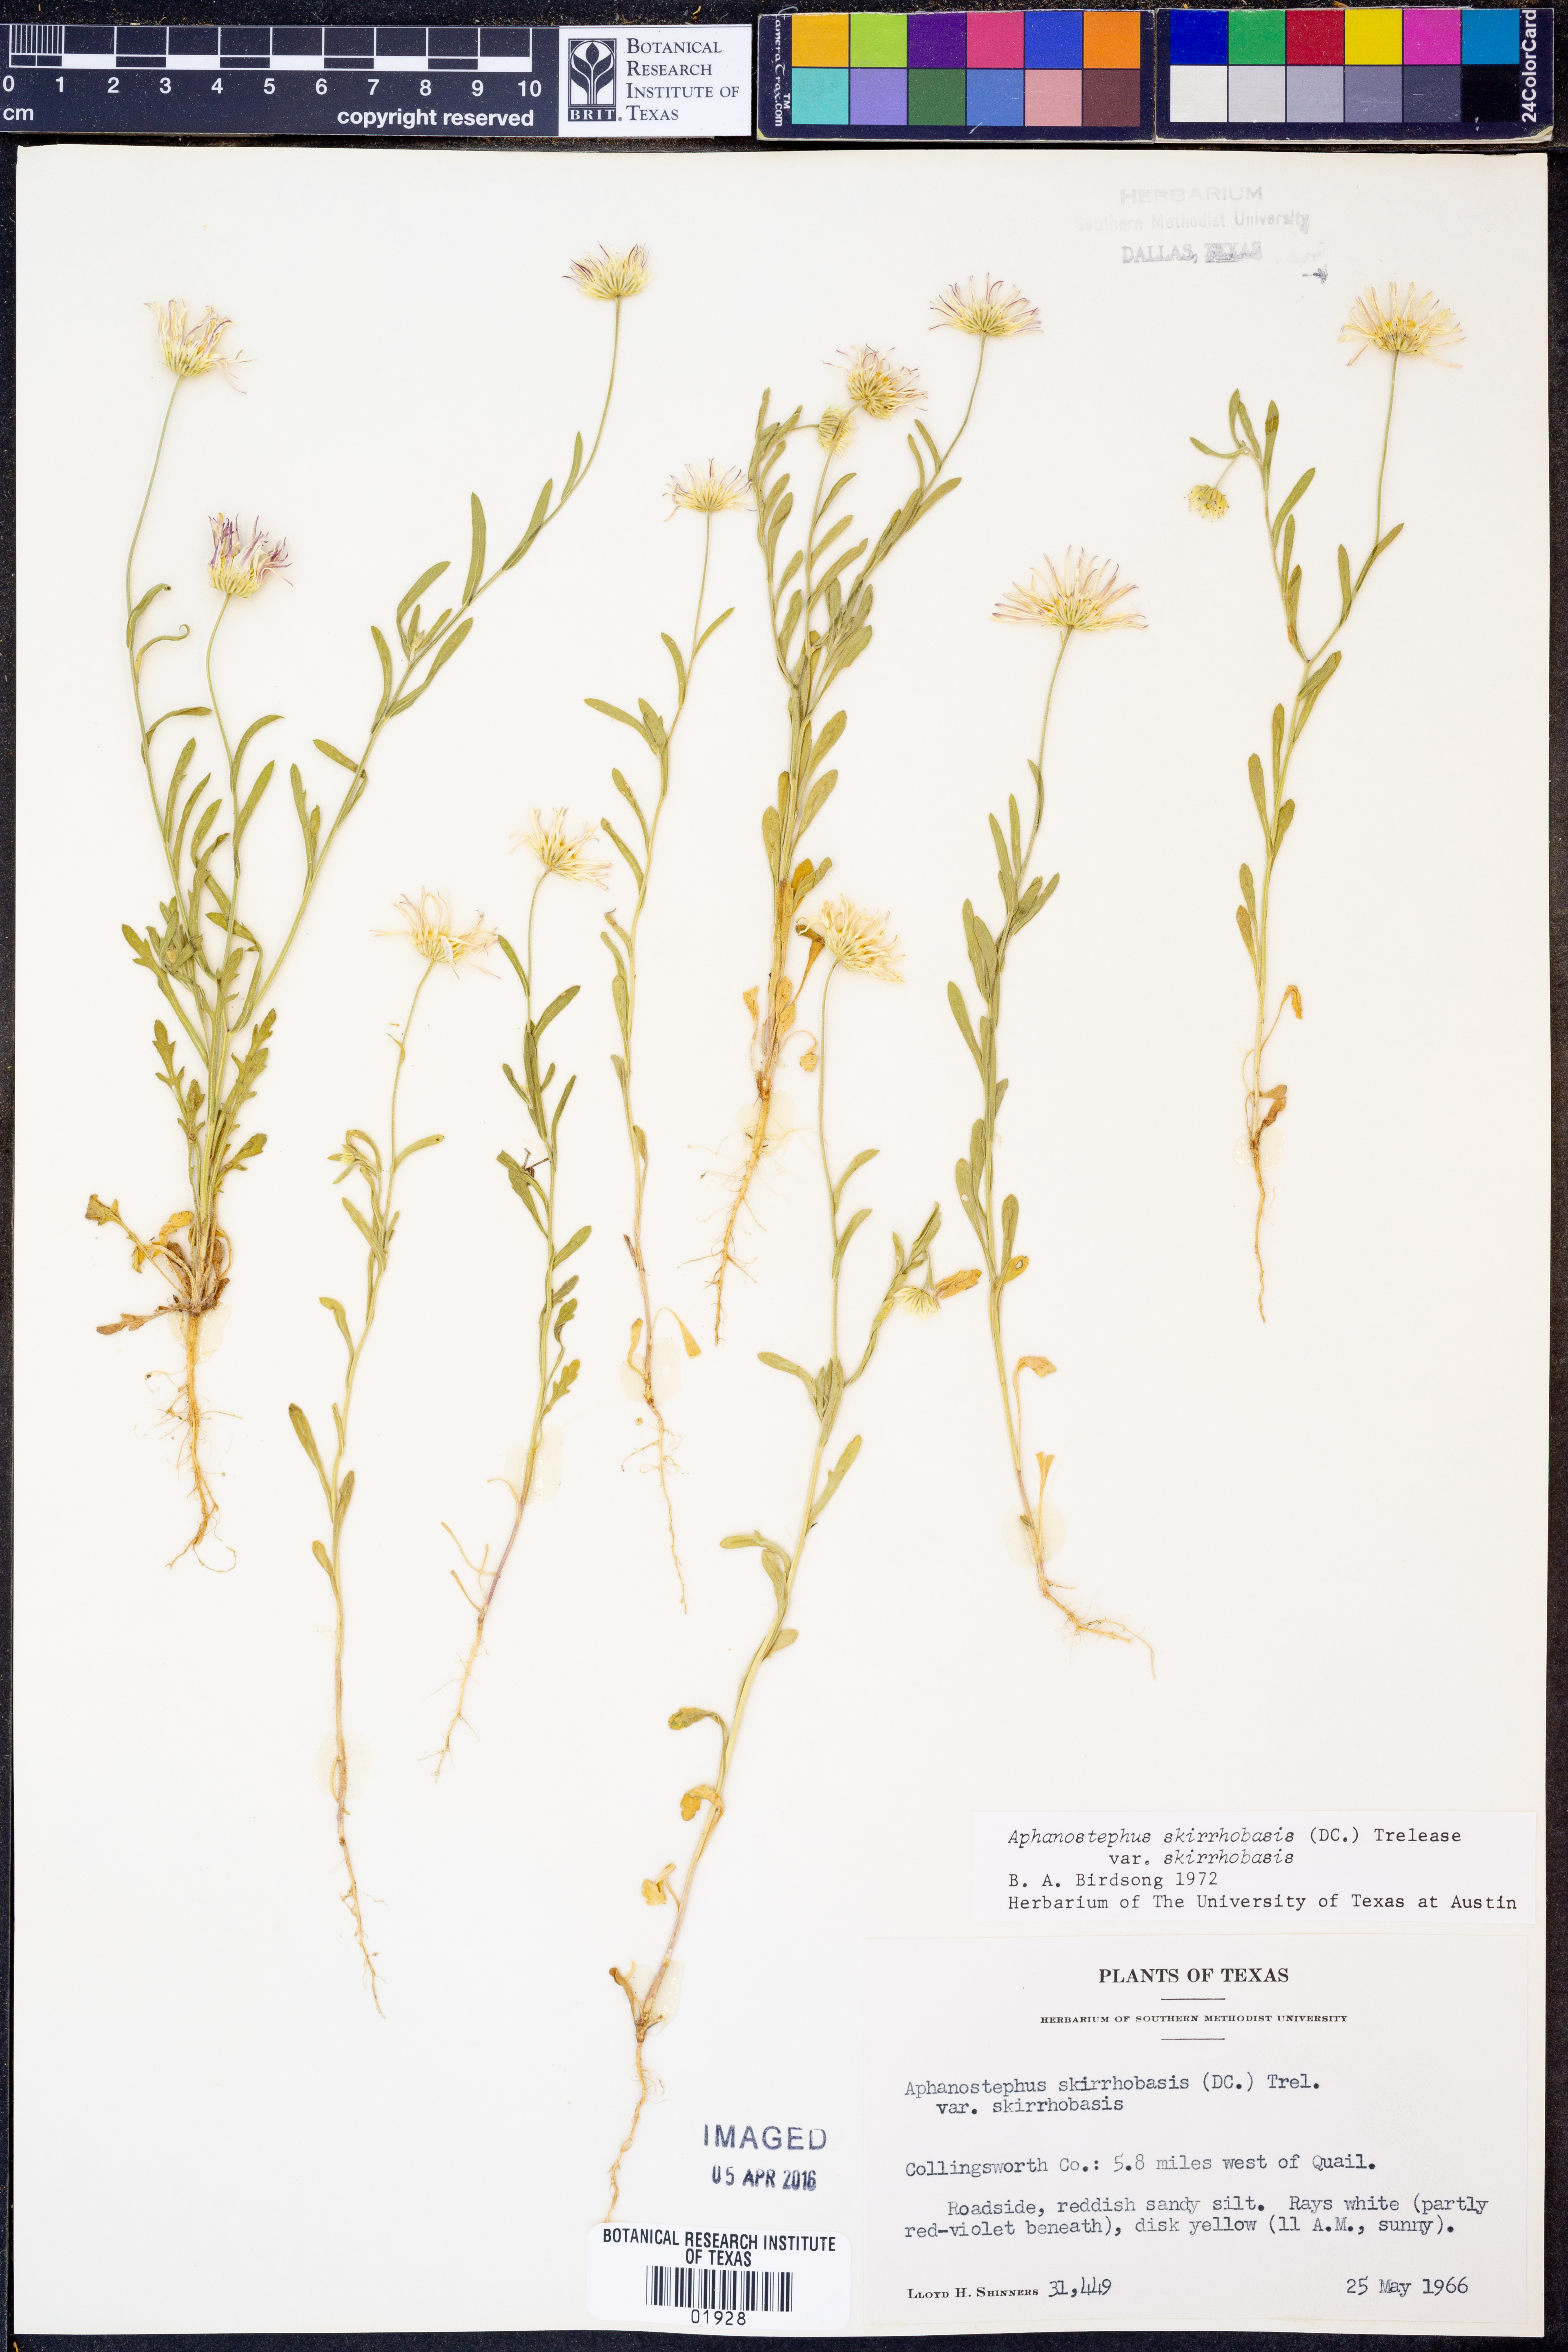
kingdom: Plantae
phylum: Tracheophyta
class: Magnoliopsida
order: Asterales
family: Asteraceae
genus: Aphanostephus
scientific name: Aphanostephus skirrhobasis
